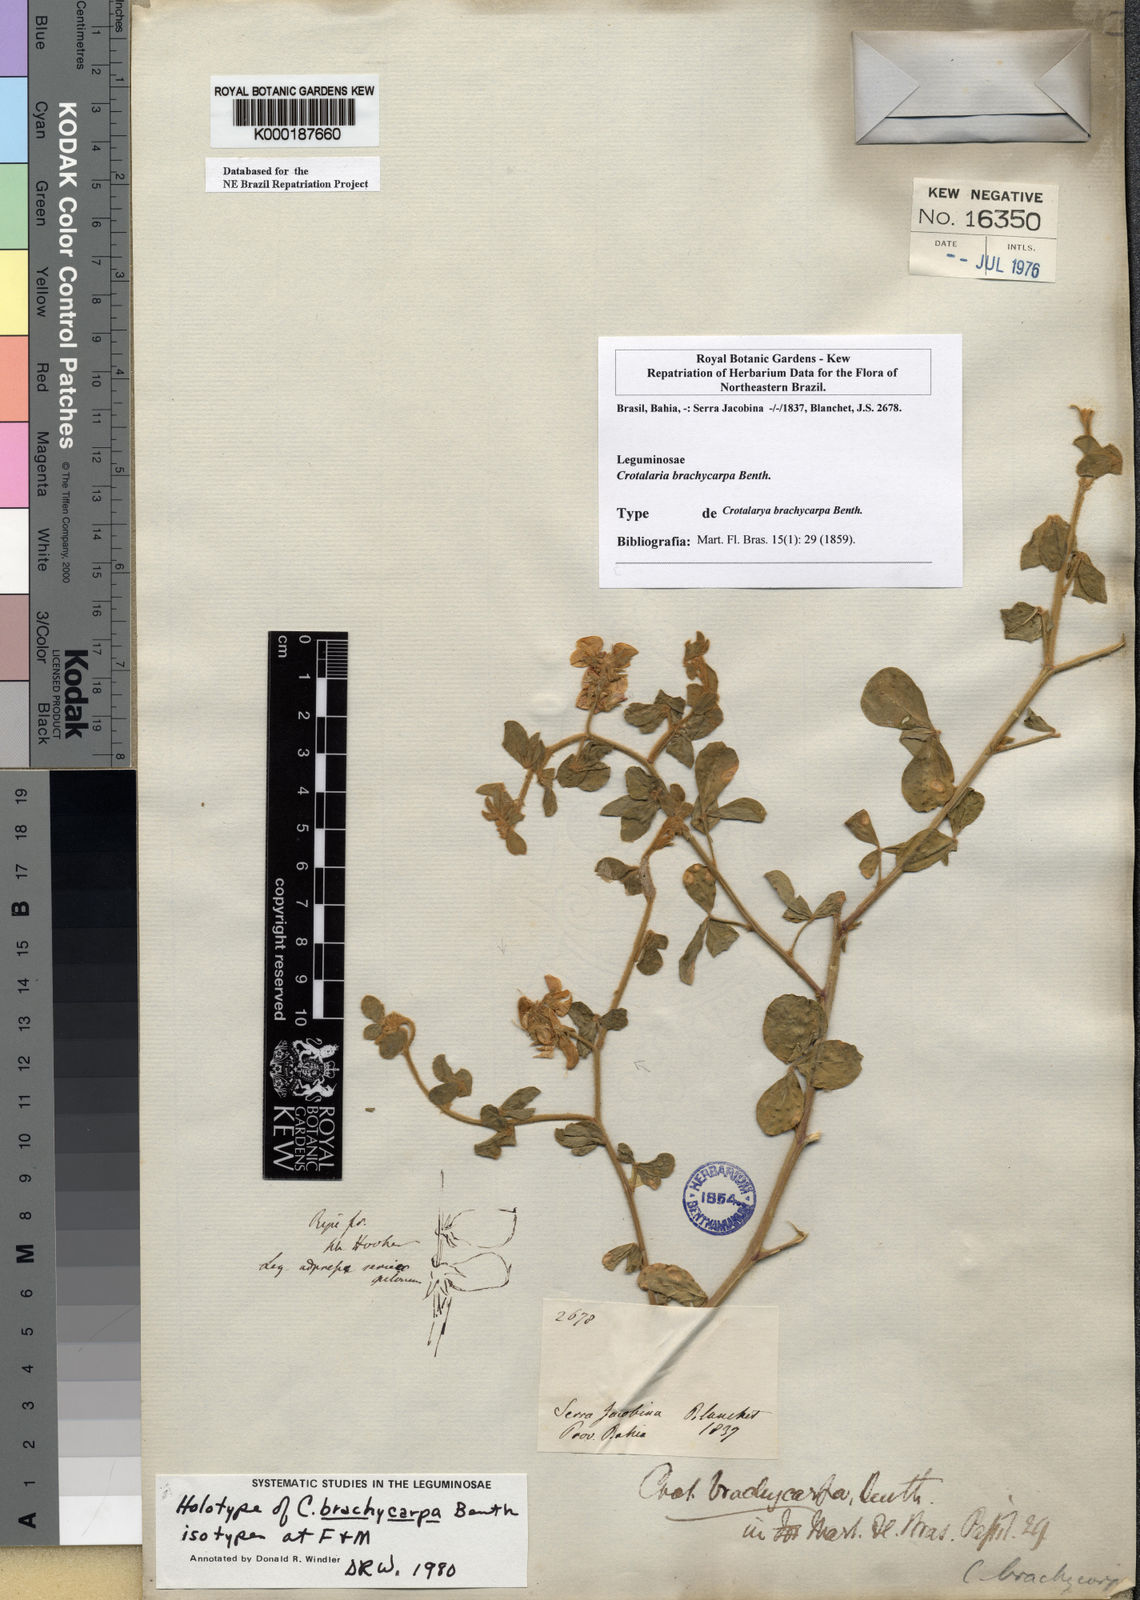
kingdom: Plantae
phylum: Tracheophyta
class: Magnoliopsida
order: Fabales
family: Fabaceae
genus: Crotalaria
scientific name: Crotalaria brachycarpa
